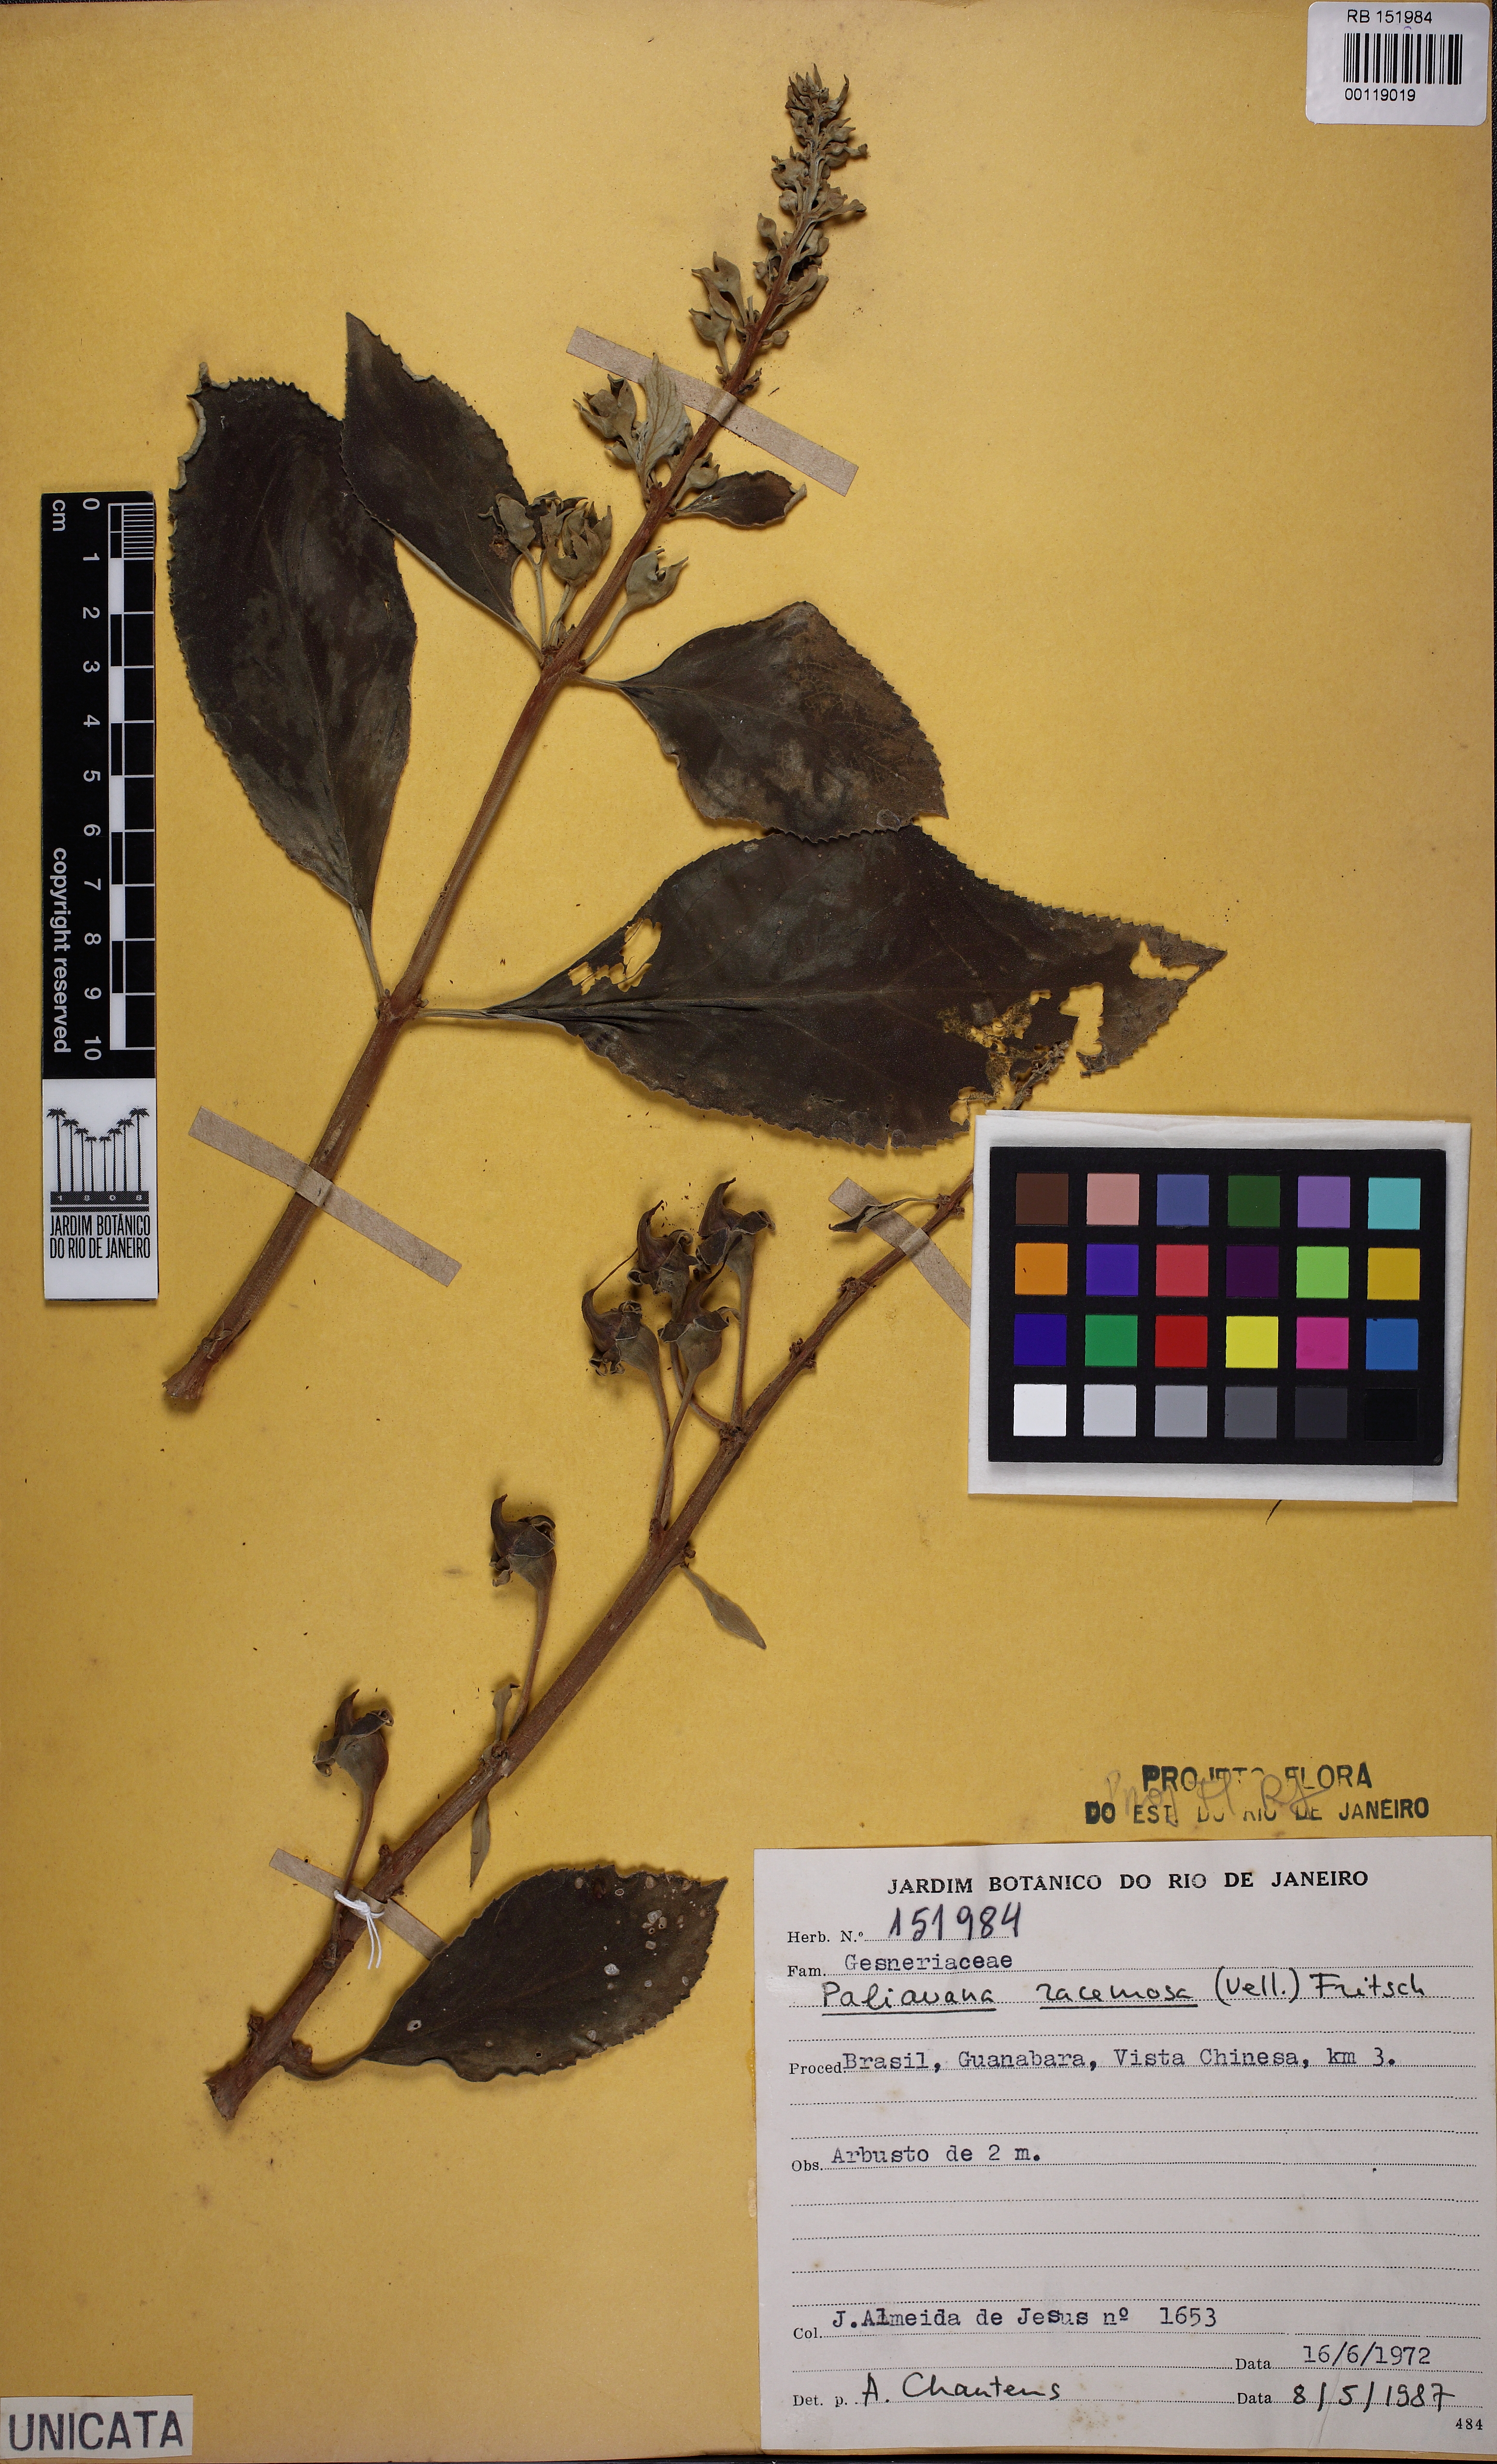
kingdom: Plantae
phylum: Tracheophyta
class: Magnoliopsida
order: Lamiales
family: Gesneriaceae
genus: Paliavana
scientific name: Paliavana prasinata
